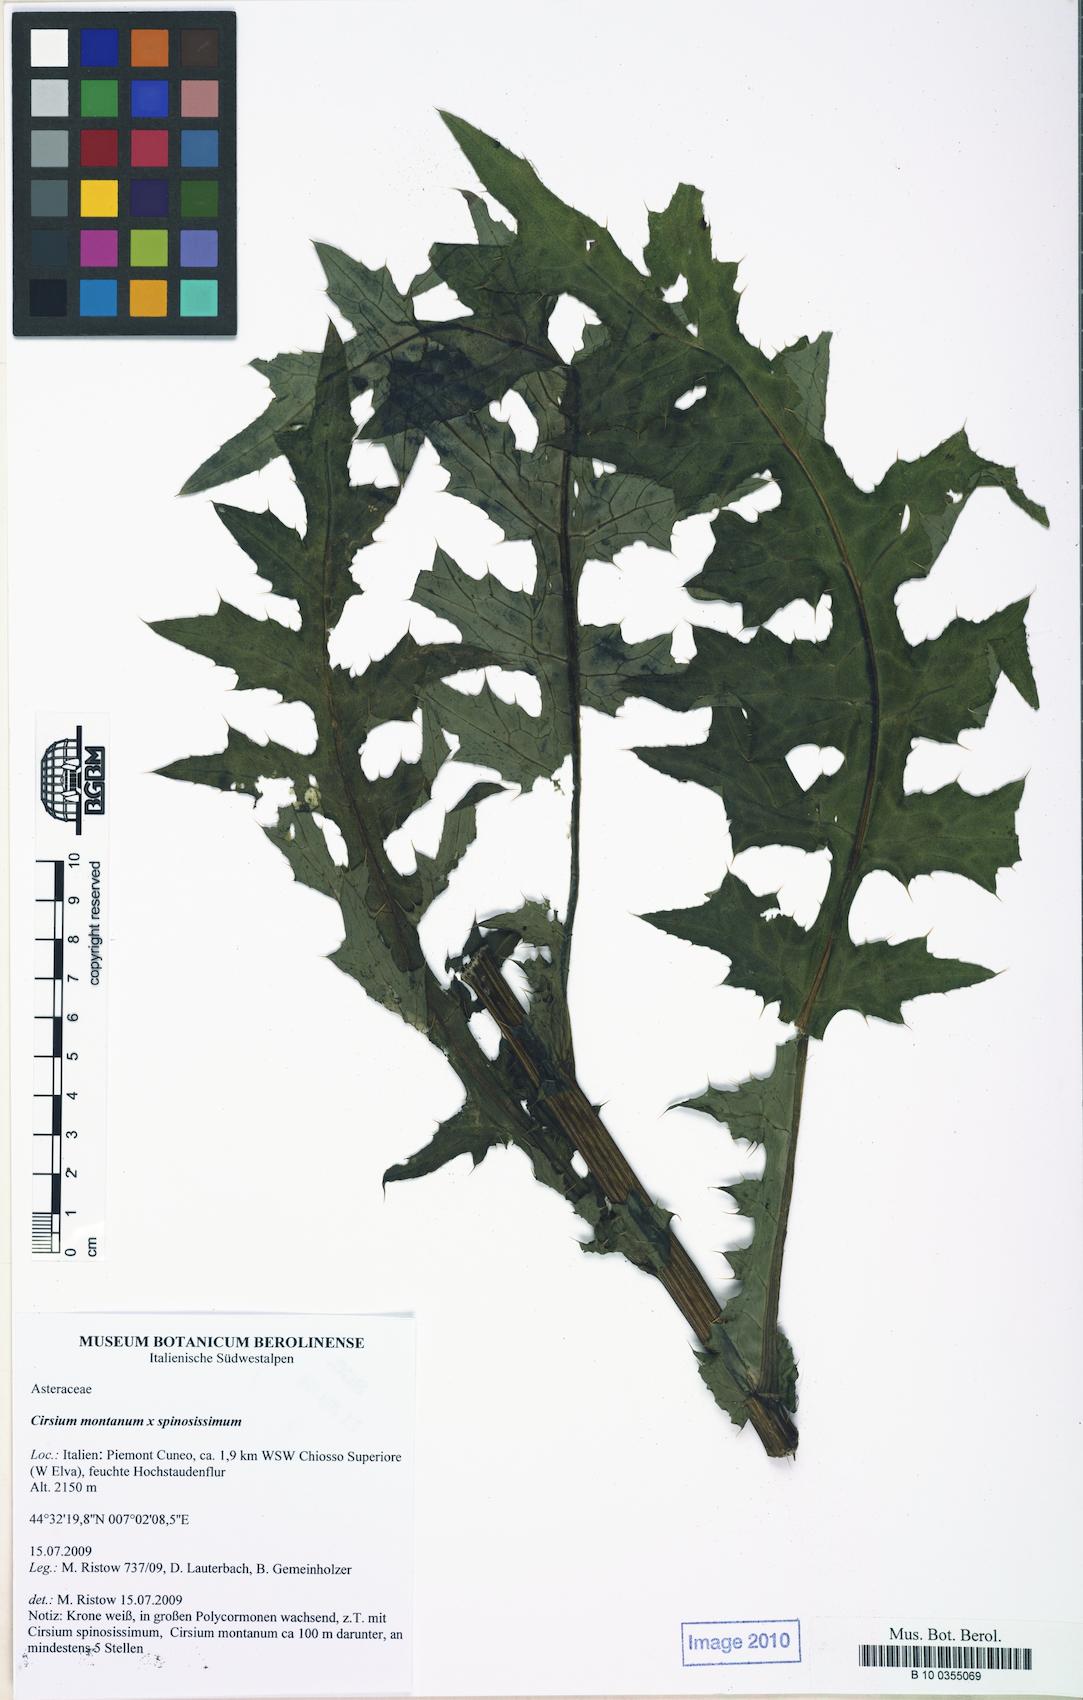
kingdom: Plantae
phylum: Tracheophyta
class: Magnoliopsida
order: Asterales
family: Asteraceae
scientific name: Asteraceae
